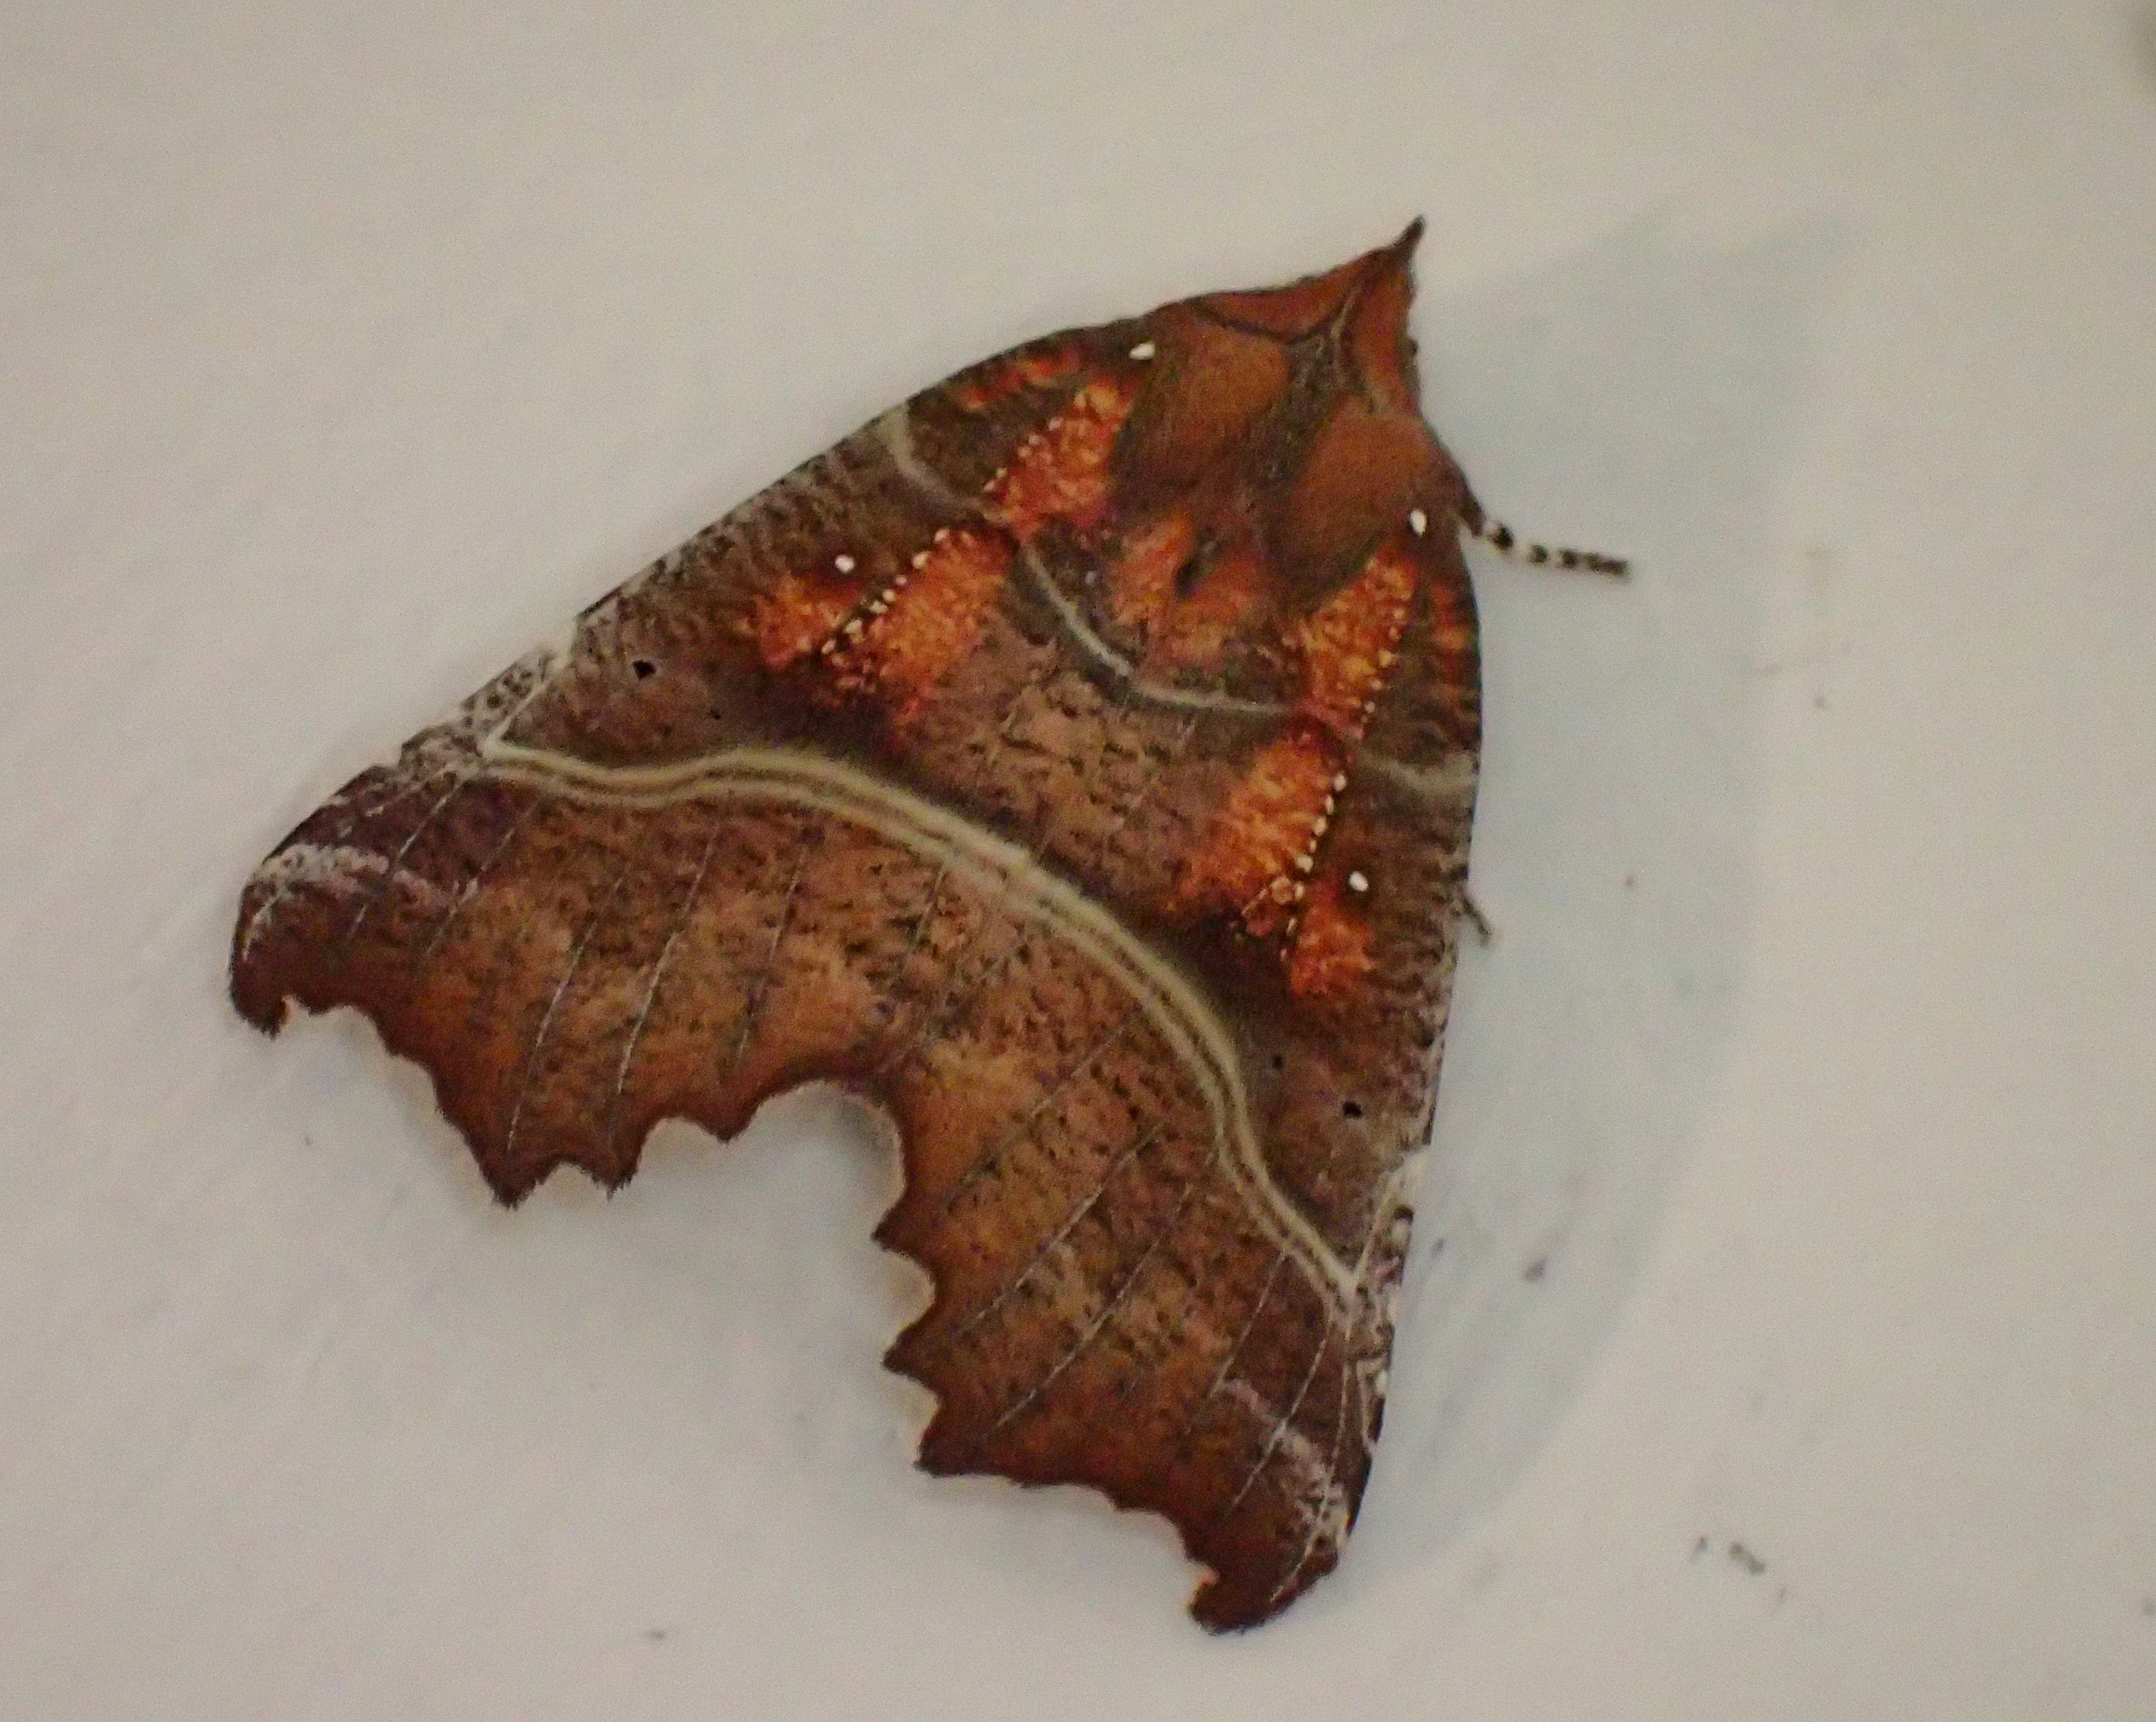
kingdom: Animalia
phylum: Arthropoda
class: Insecta
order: Lepidoptera
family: Erebidae
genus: Scoliopteryx
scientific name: Scoliopteryx libatrix
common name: Husmoderugle
